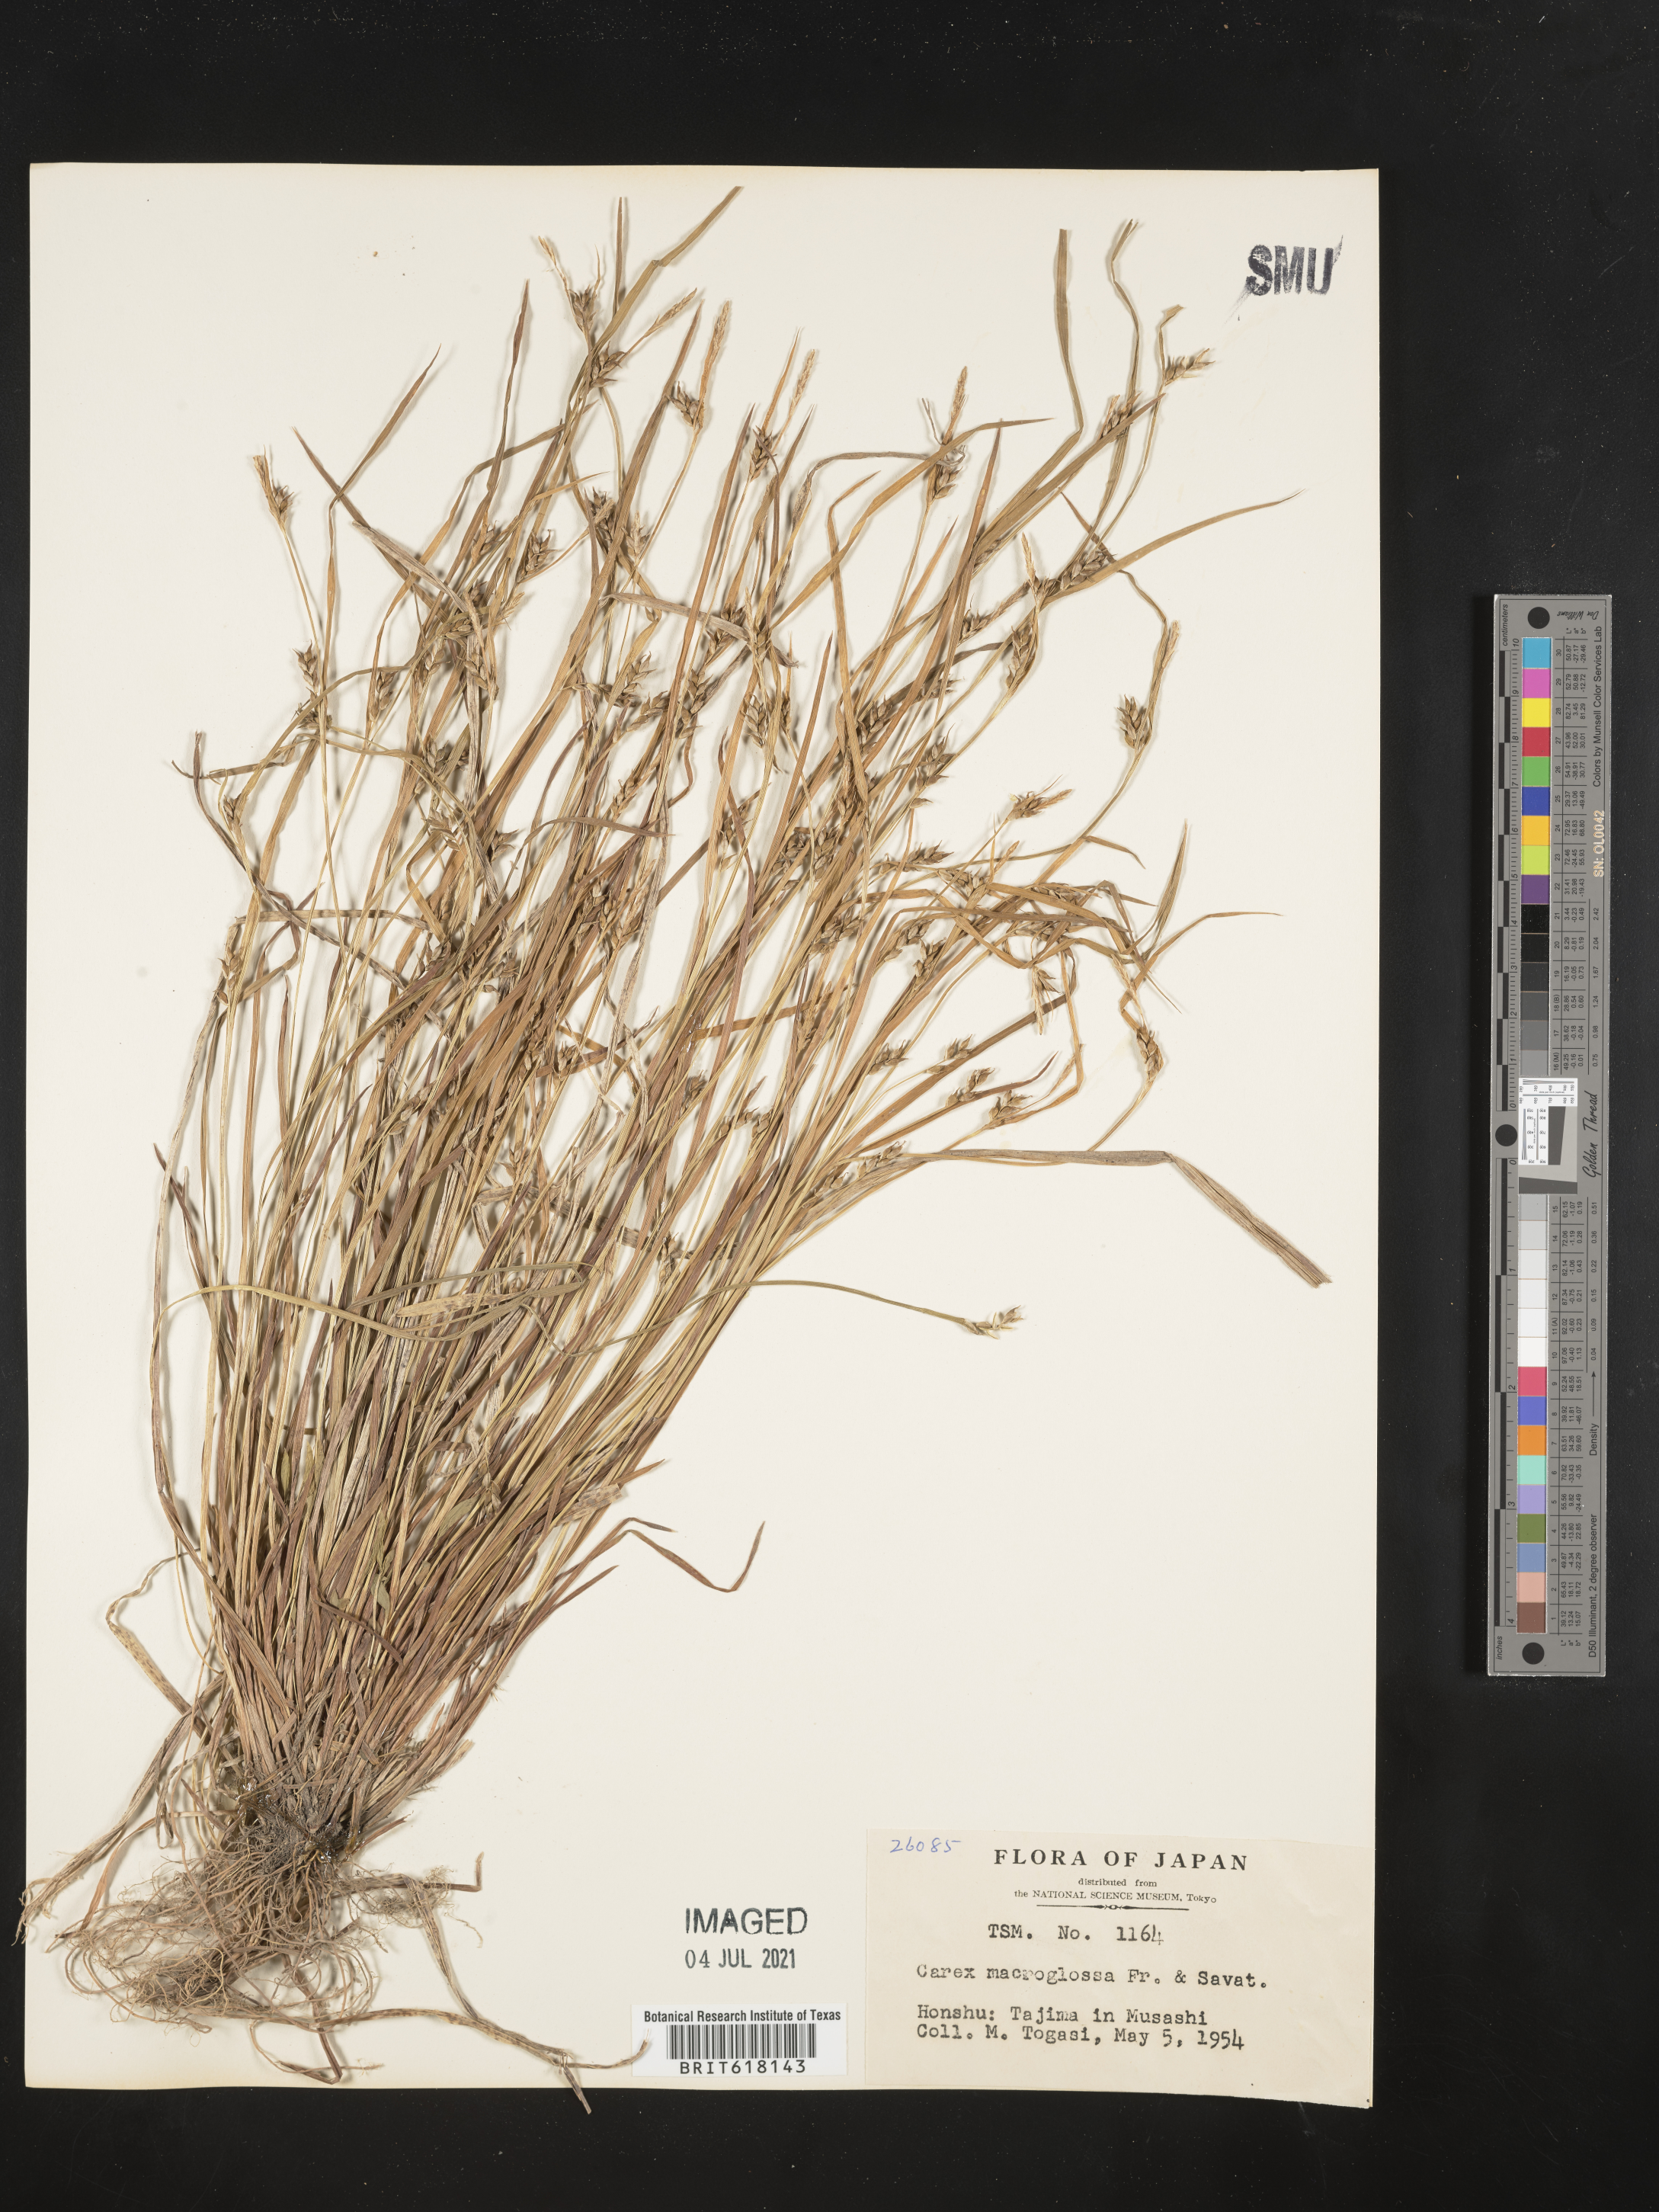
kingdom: Plantae
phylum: Tracheophyta
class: Liliopsida
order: Poales
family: Cyperaceae
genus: Carex
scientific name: Carex macroglossa
